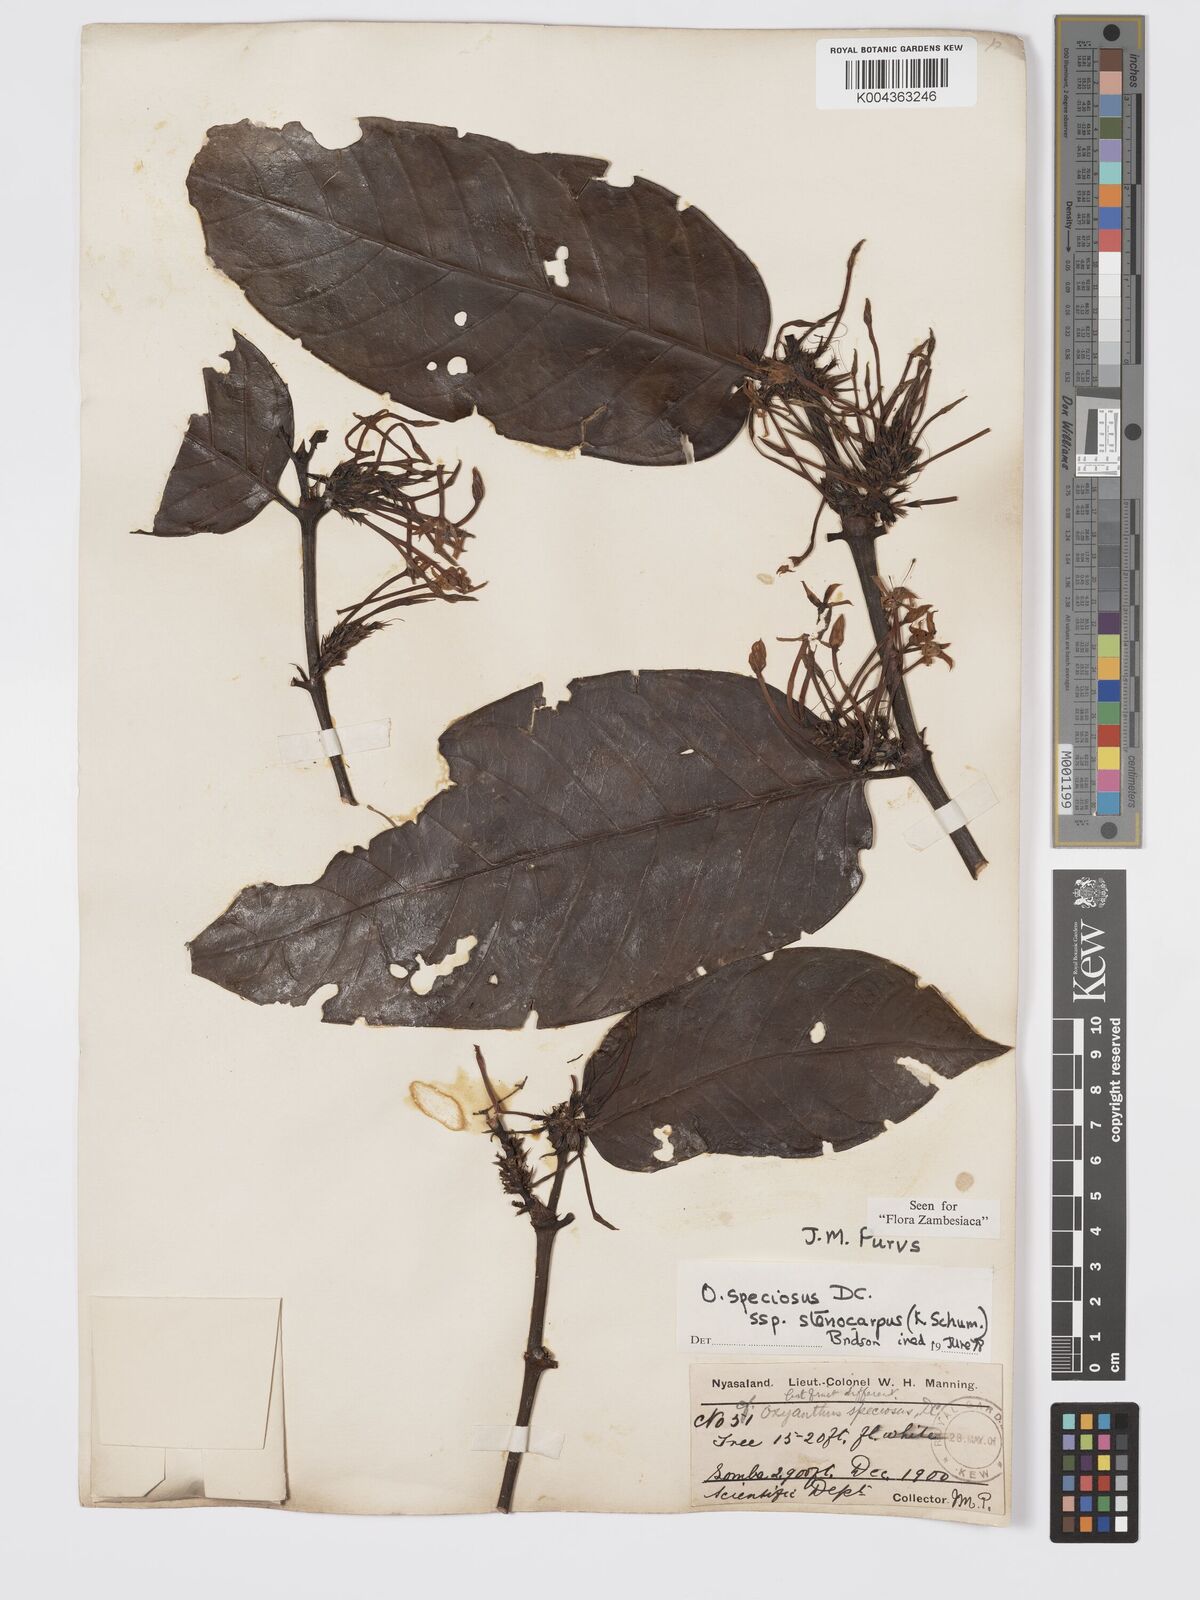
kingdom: Plantae
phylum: Tracheophyta
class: Magnoliopsida
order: Gentianales
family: Rubiaceae
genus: Oxyanthus
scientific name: Oxyanthus speciosus
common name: Whipstick loquat
